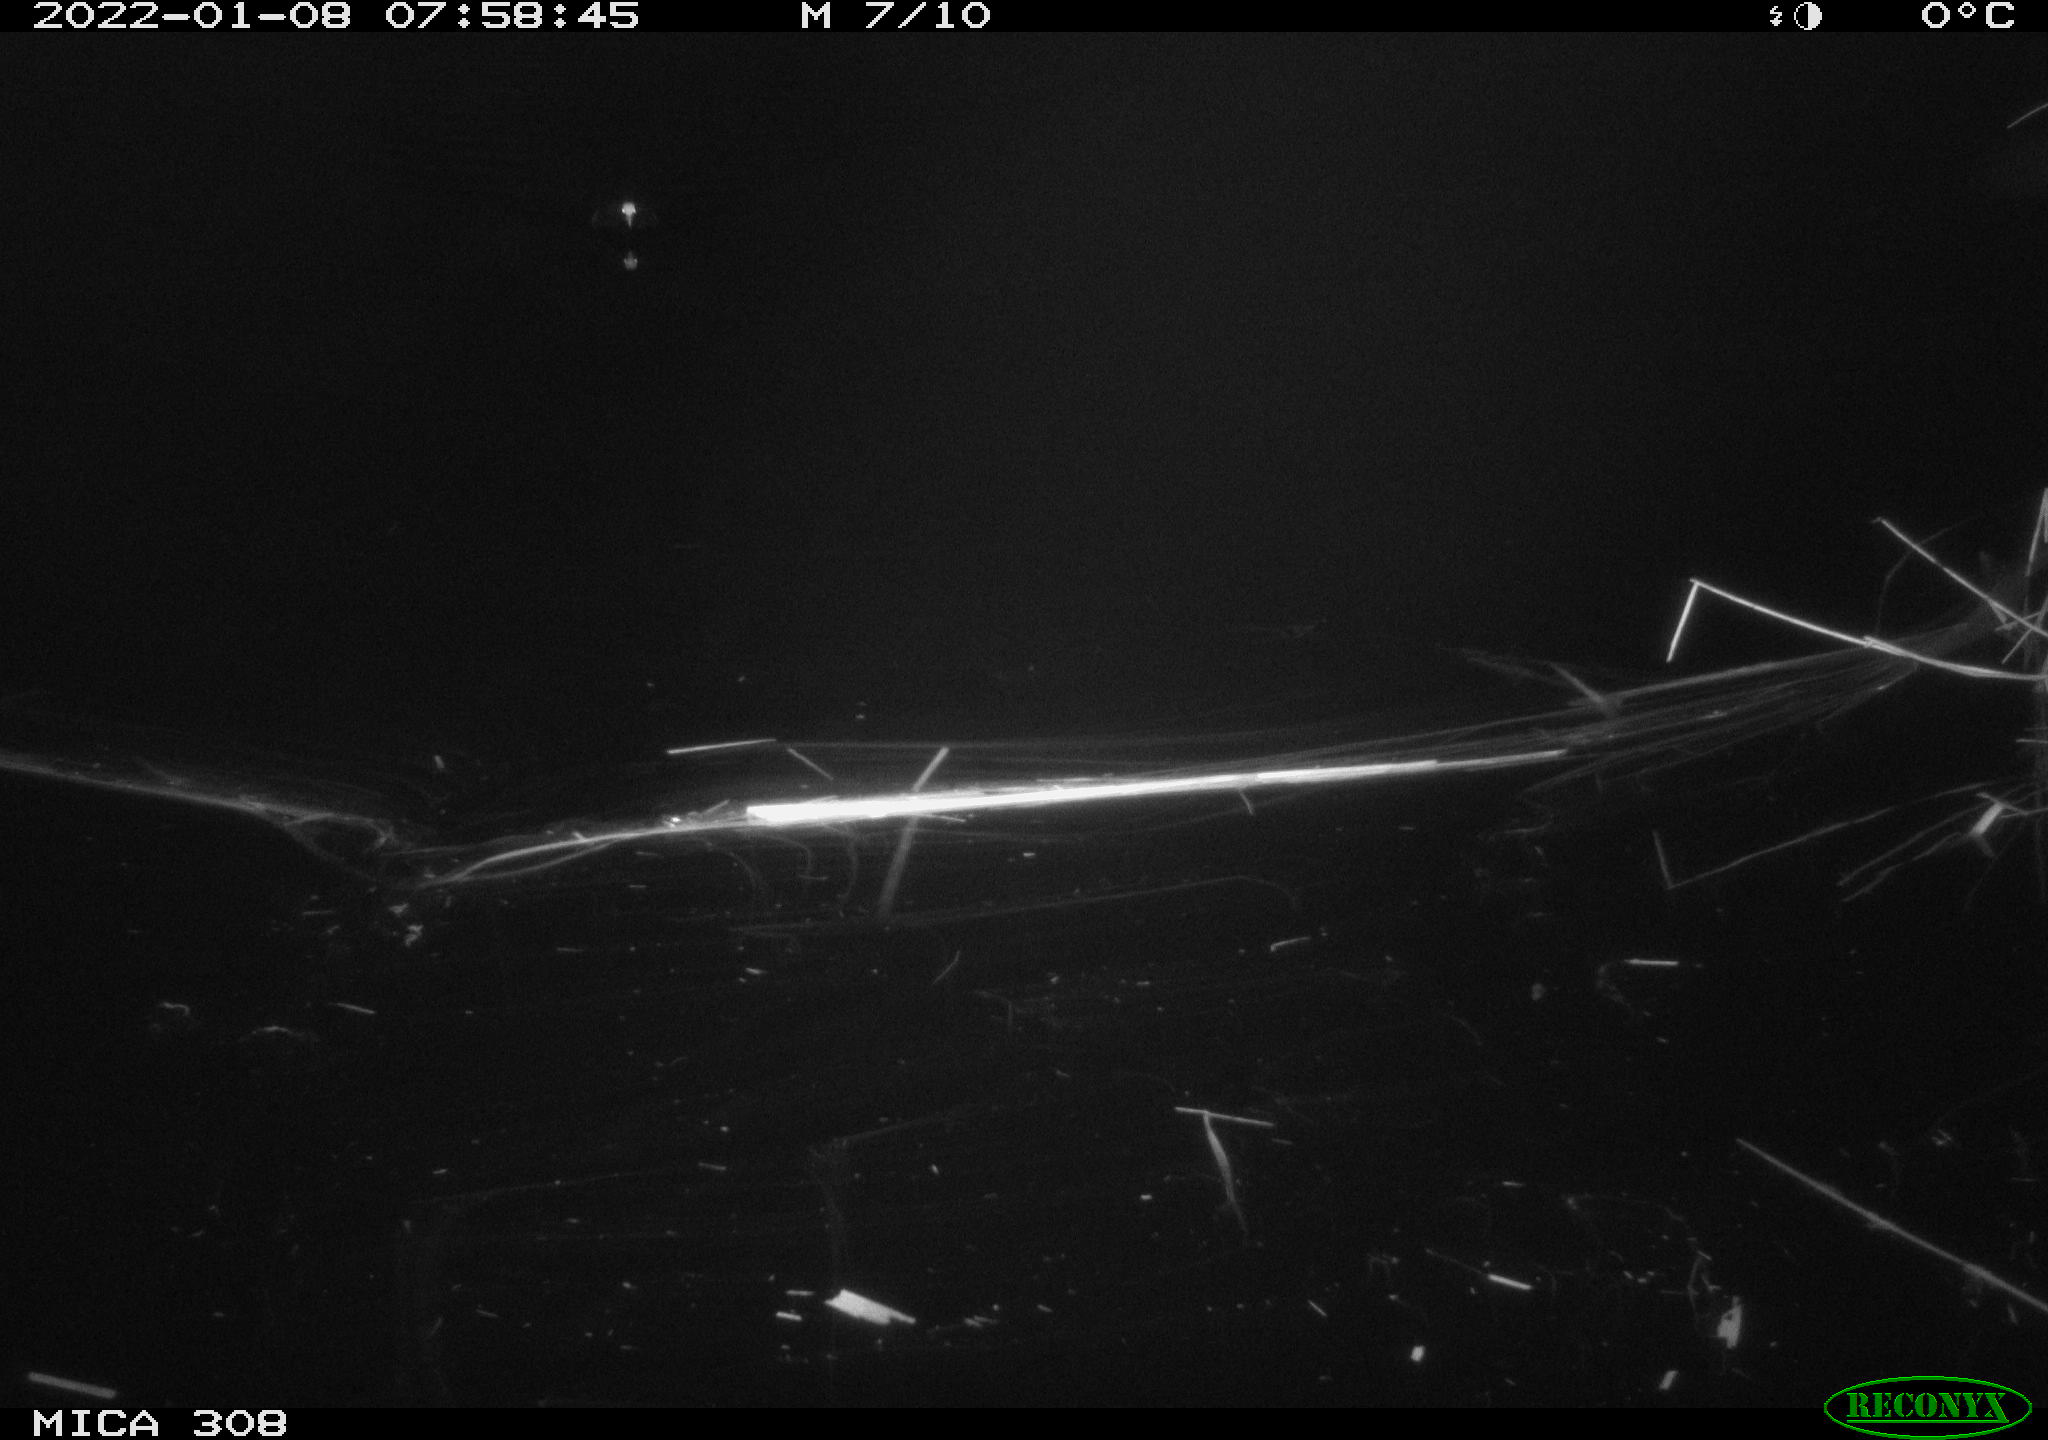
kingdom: Animalia
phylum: Chordata
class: Aves
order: Gruiformes
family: Rallidae
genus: Fulica
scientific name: Fulica atra
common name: Eurasian coot
